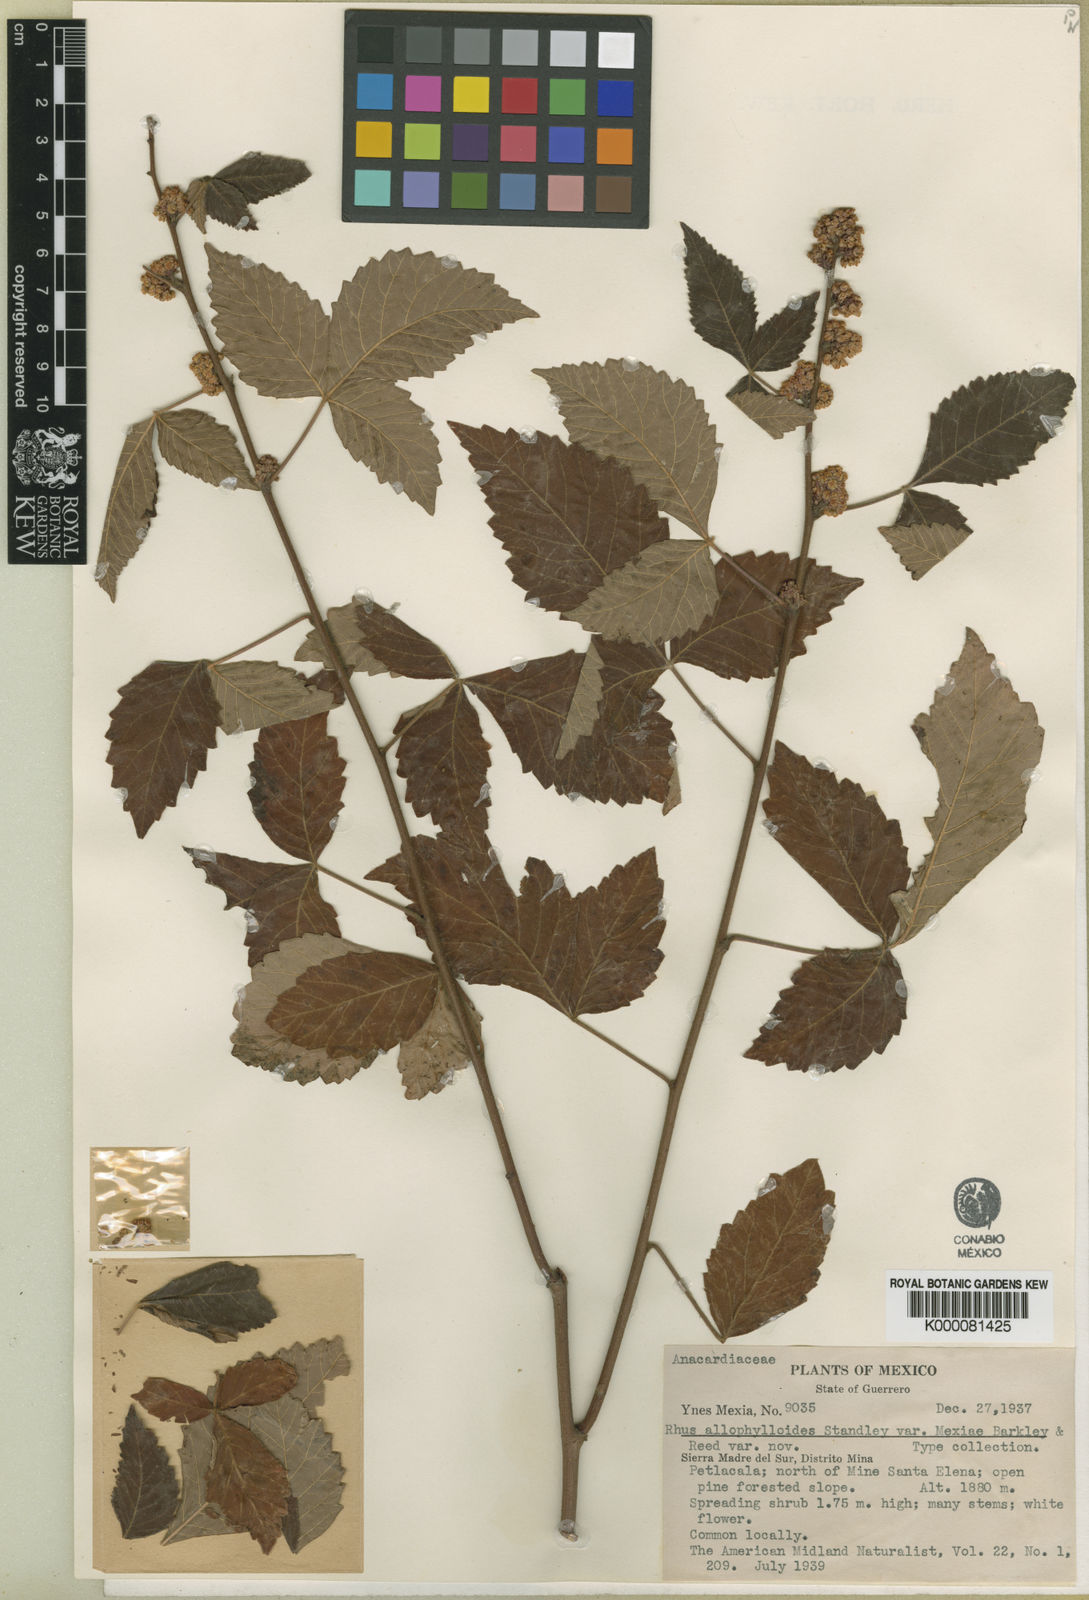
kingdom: Plantae
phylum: Tracheophyta
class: Magnoliopsida
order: Sapindales
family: Anacardiaceae
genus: Rhus
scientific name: Rhus allophyloides
